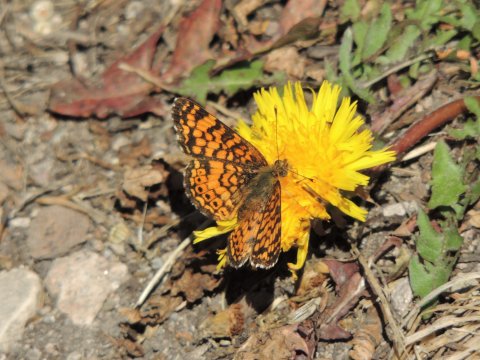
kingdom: Animalia
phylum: Arthropoda
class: Insecta
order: Lepidoptera
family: Nymphalidae
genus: Eresia
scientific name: Eresia aveyrona
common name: Mylitta Crescent
